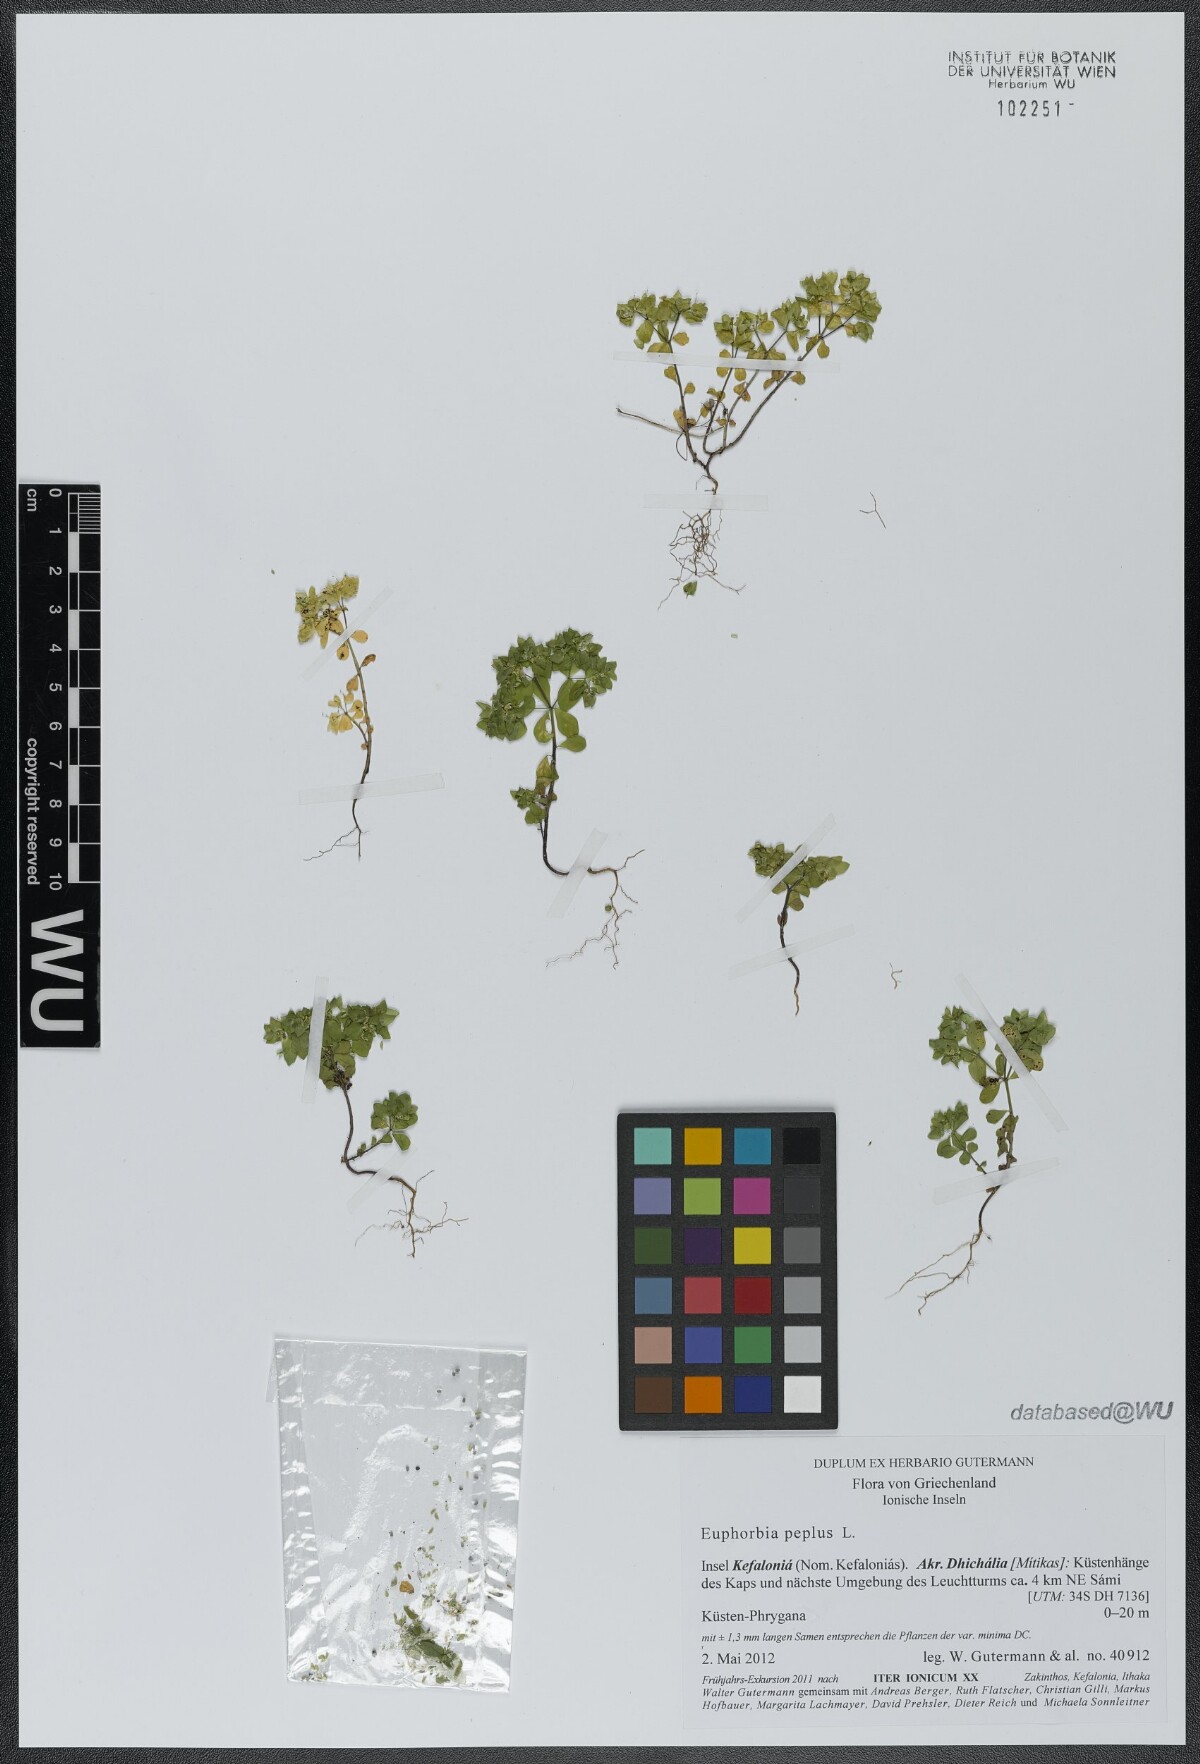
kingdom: Plantae
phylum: Tracheophyta
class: Magnoliopsida
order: Malpighiales
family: Euphorbiaceae
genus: Euphorbia
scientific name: Euphorbia peplus
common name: Petty spurge
